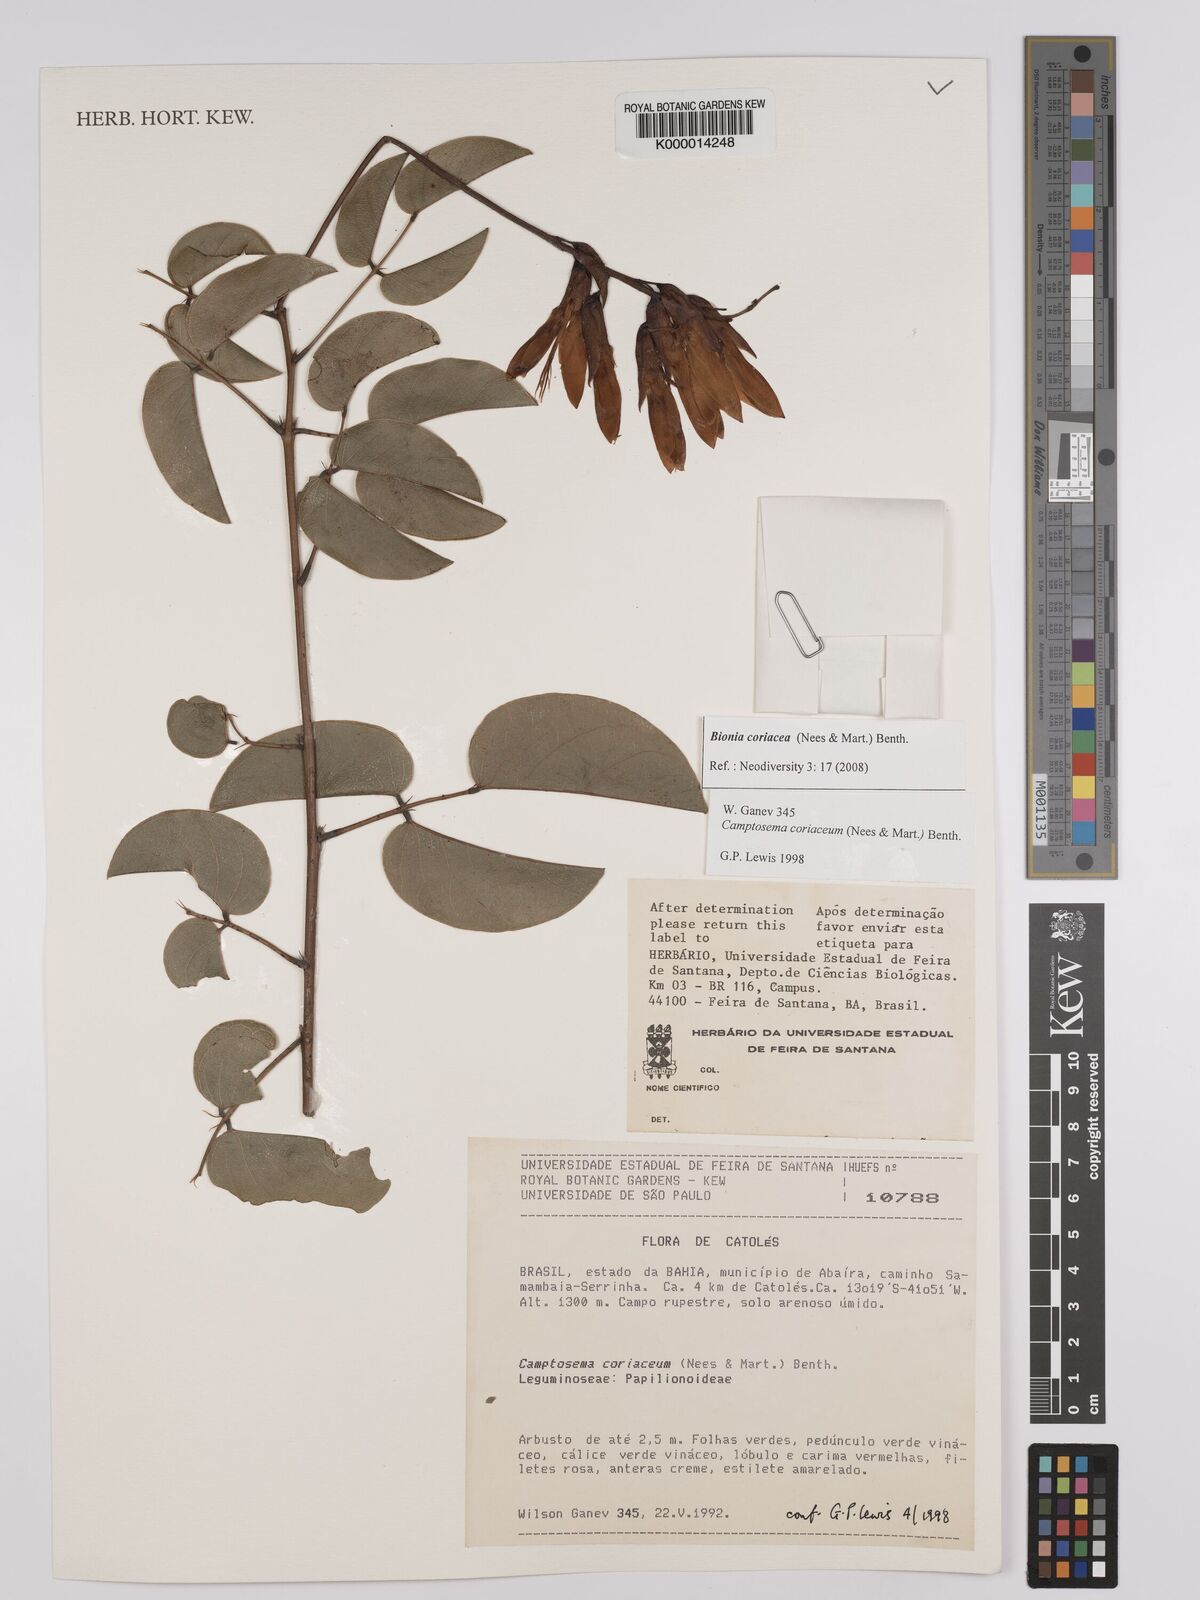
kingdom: Plantae
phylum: Tracheophyta
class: Magnoliopsida
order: Fabales
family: Fabaceae
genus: Camptosema
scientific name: Camptosema coriaceum
